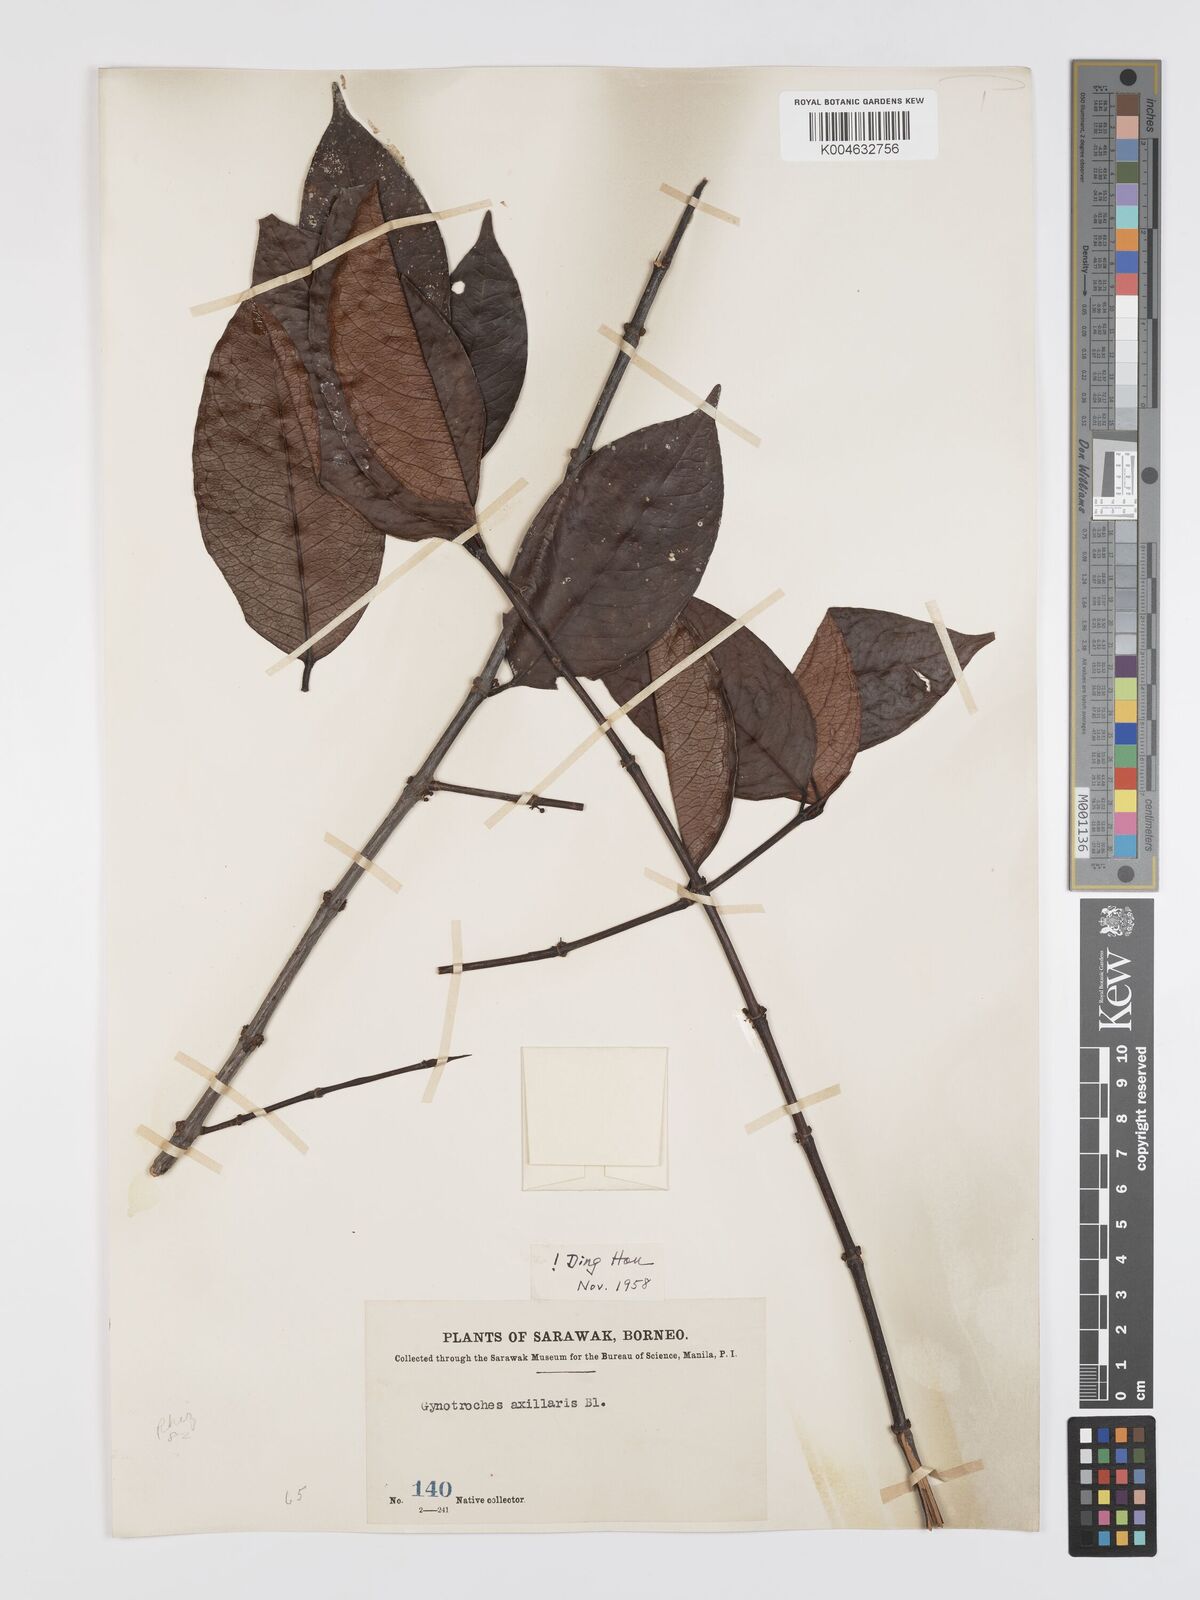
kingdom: Plantae
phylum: Tracheophyta
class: Magnoliopsida
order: Malpighiales
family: Rhizophoraceae
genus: Gynotroches
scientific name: Gynotroches axillaris
